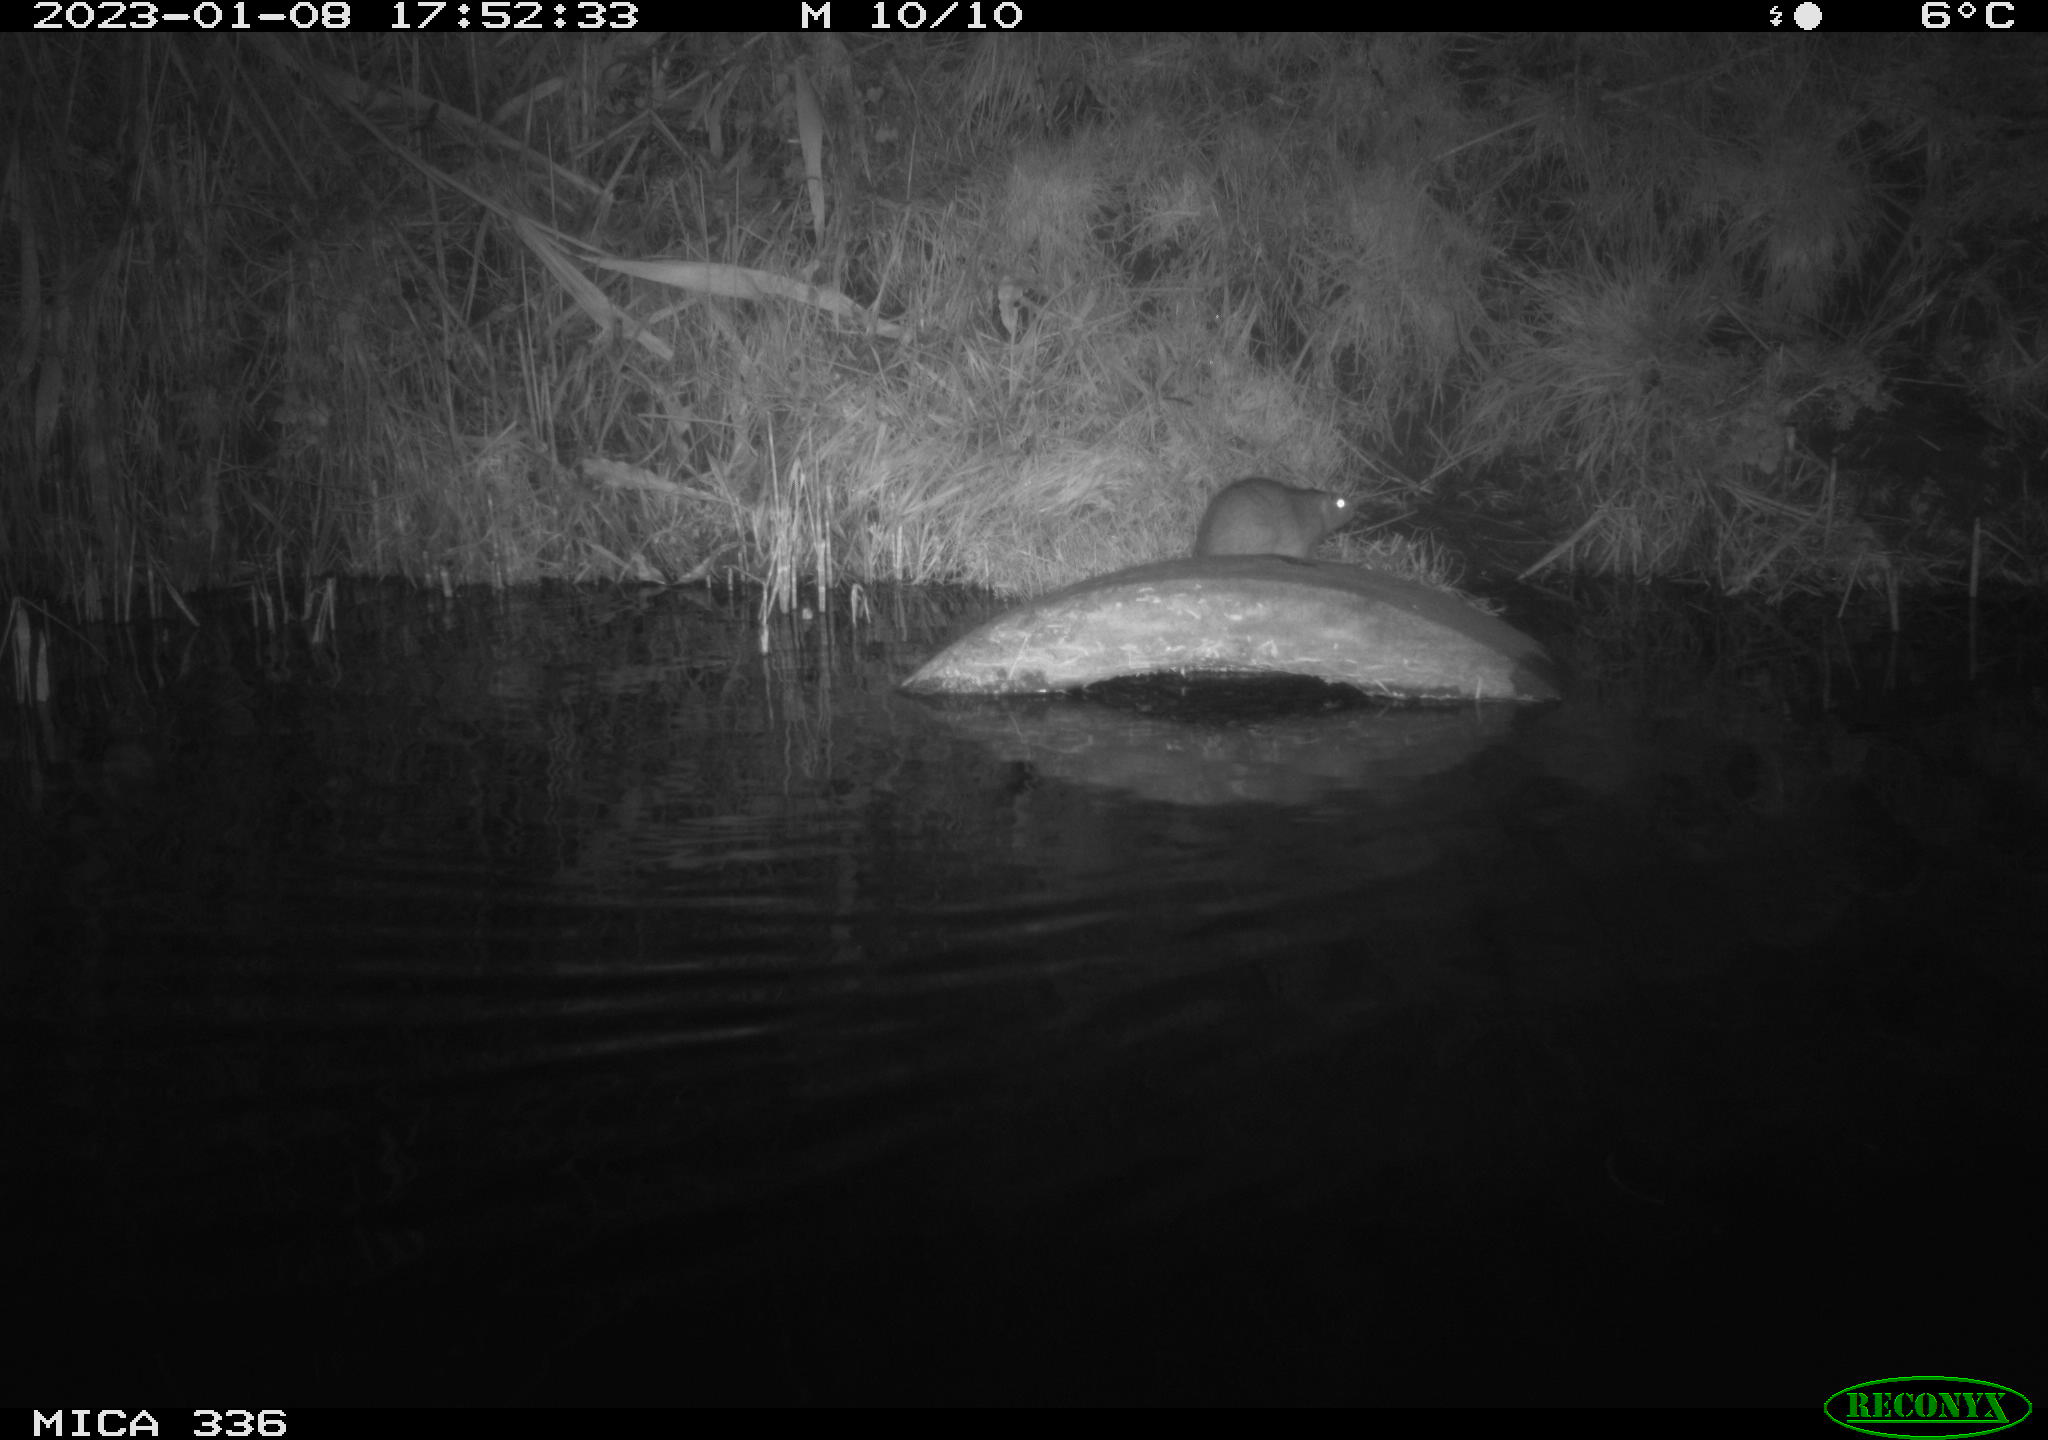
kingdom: Animalia
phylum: Chordata
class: Mammalia
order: Rodentia
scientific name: Rodentia
